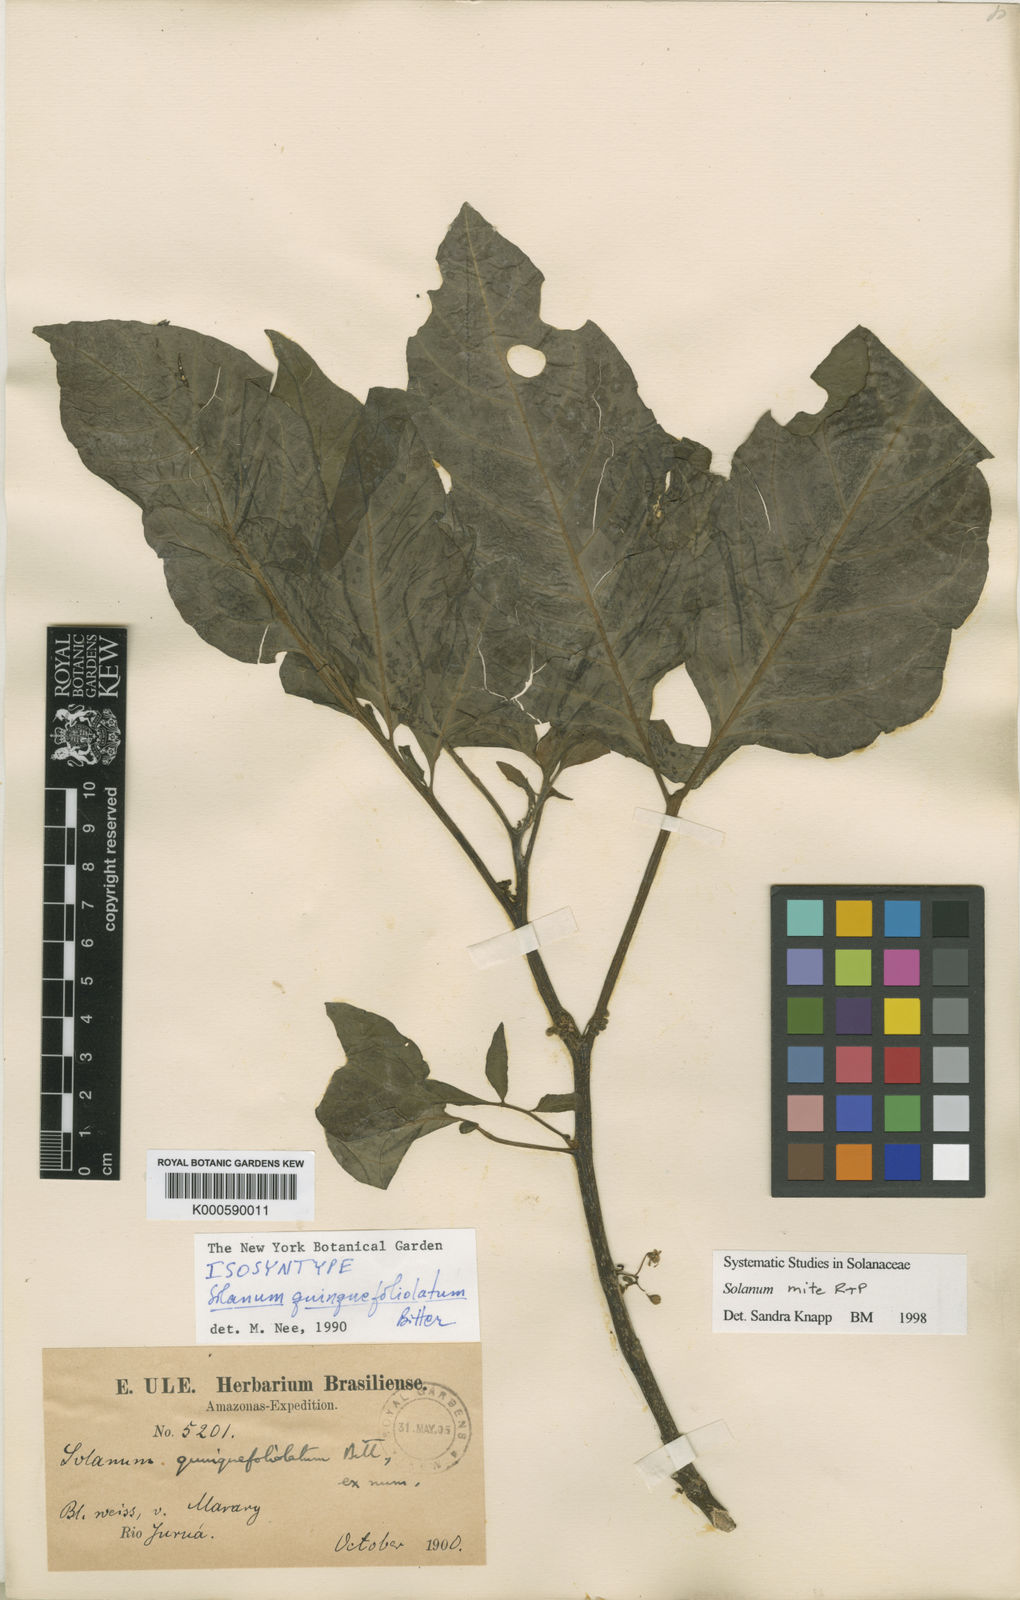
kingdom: Plantae
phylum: Tracheophyta
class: Magnoliopsida
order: Solanales
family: Solanaceae
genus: Solanum
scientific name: Solanum mite
